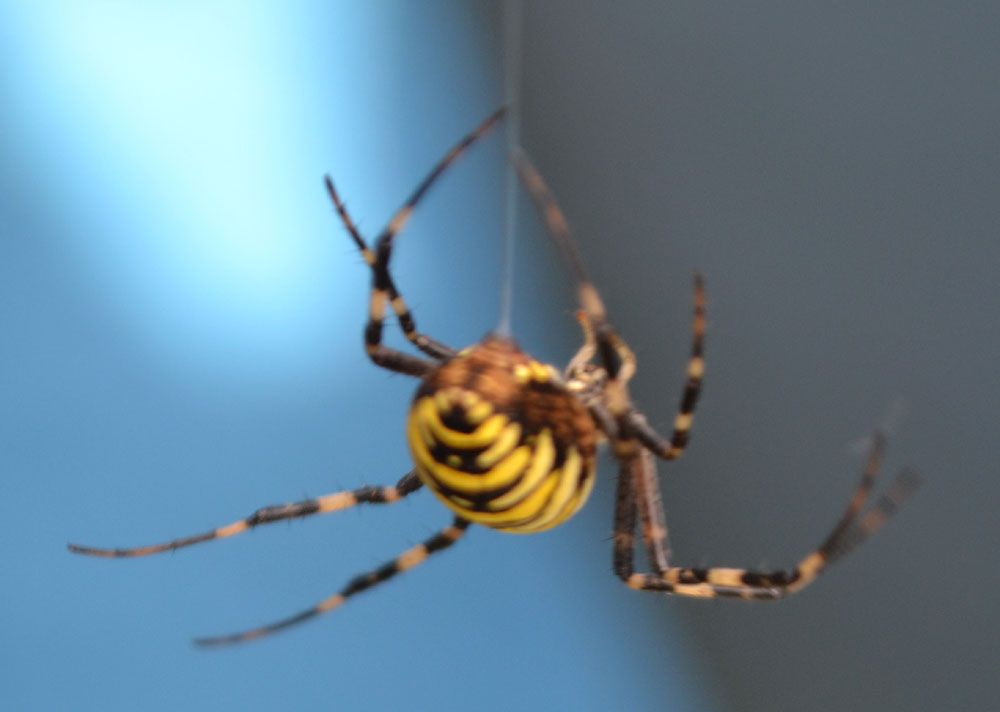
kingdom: Animalia
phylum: Arthropoda
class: Arachnida
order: Araneae
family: Araneidae
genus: Argiope
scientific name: Argiope bruennichi
